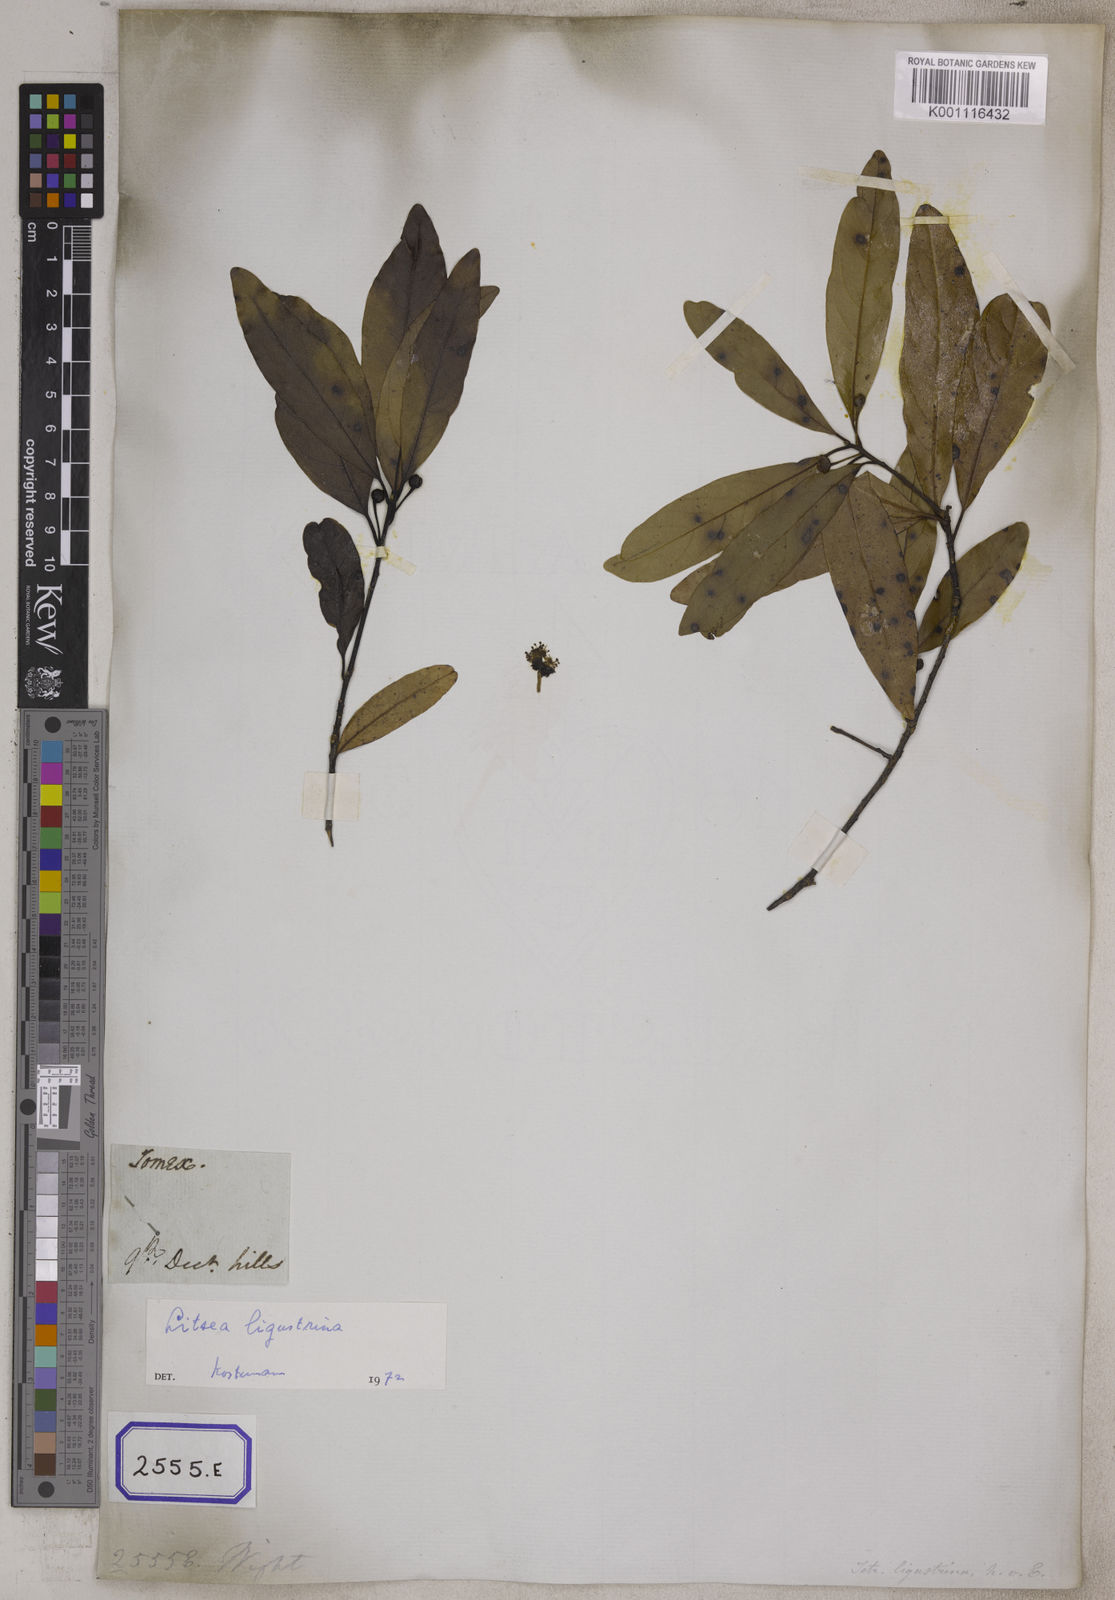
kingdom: Plantae
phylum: Tracheophyta
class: Magnoliopsida
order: Laurales
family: Lauraceae
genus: Litsea
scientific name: Litsea glutinosa
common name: Indian-laurel
